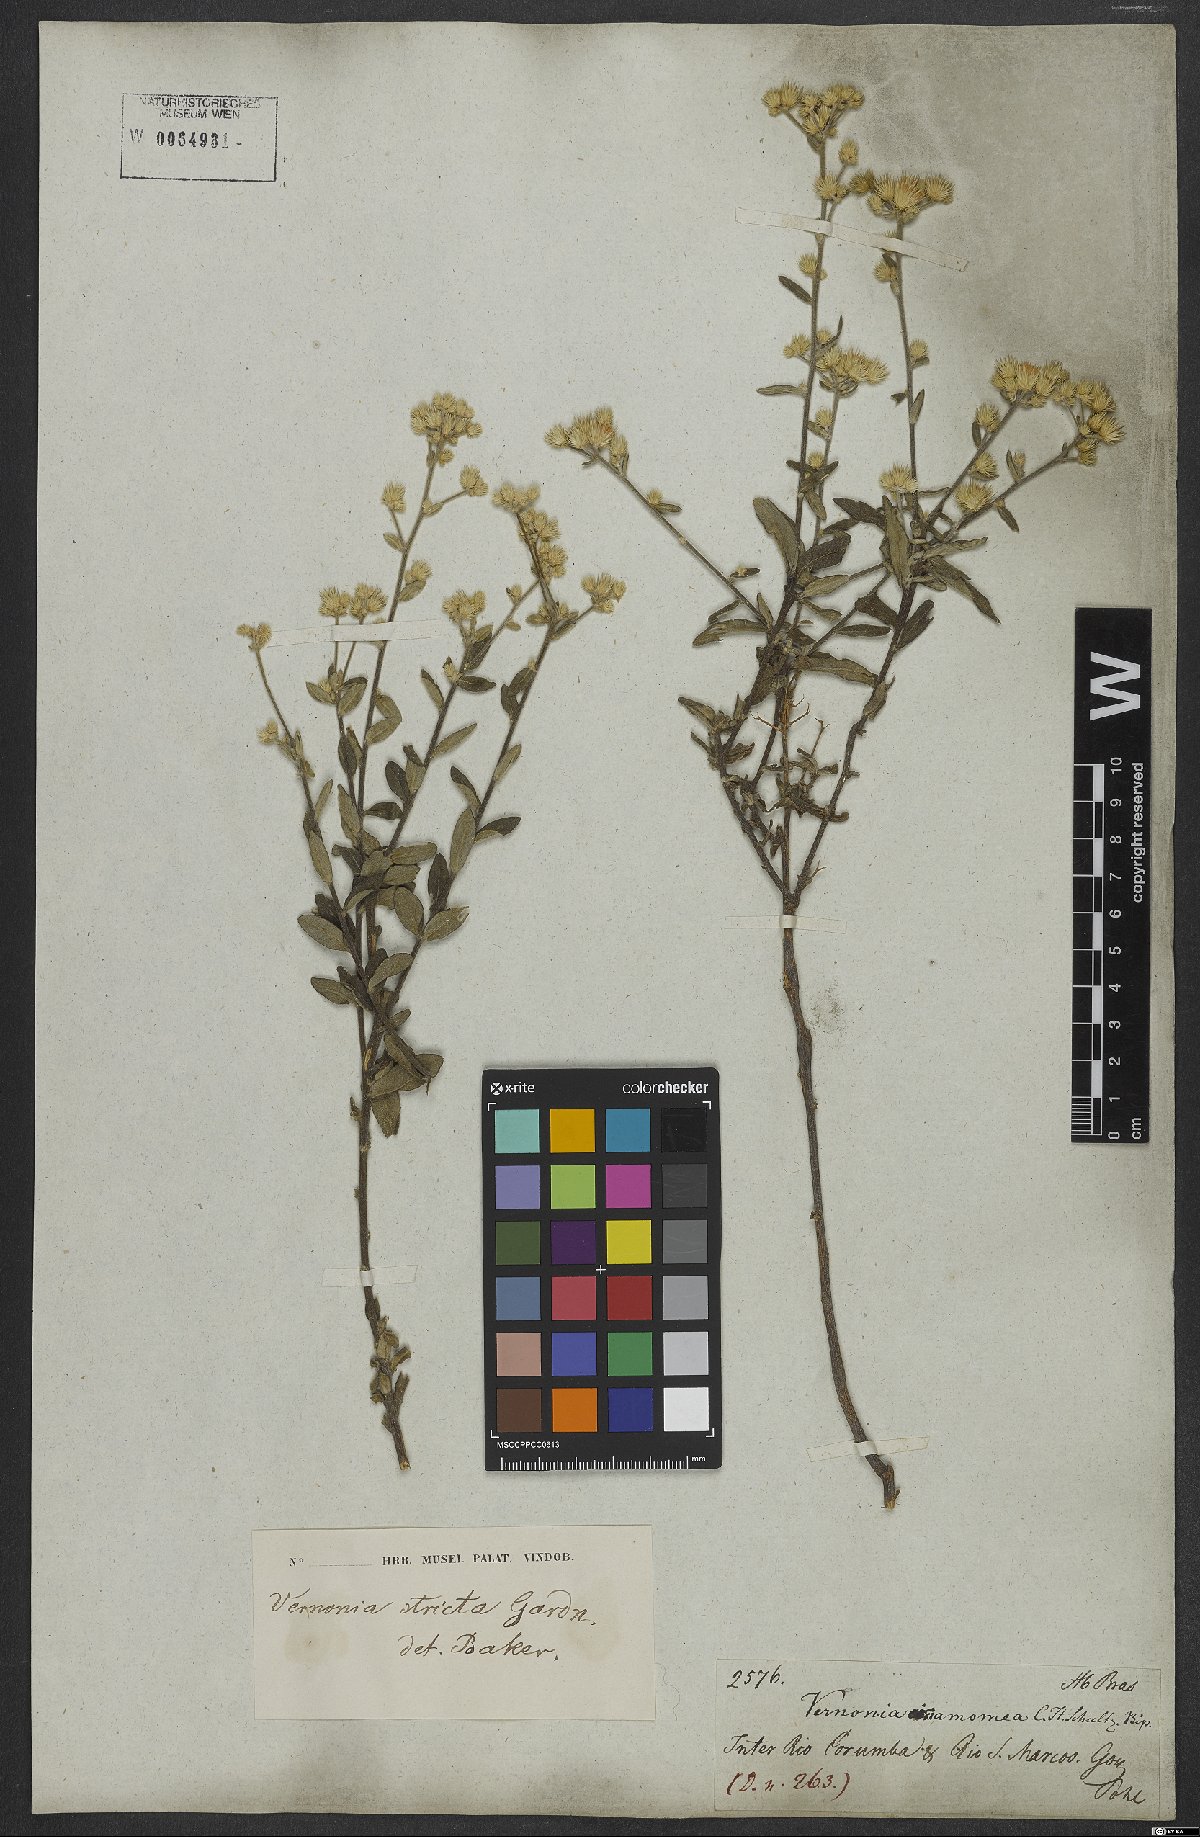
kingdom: Plantae
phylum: Tracheophyta
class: Magnoliopsida
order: Asterales
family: Asteraceae
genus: Echinocoryne
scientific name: Echinocoryne stricta
